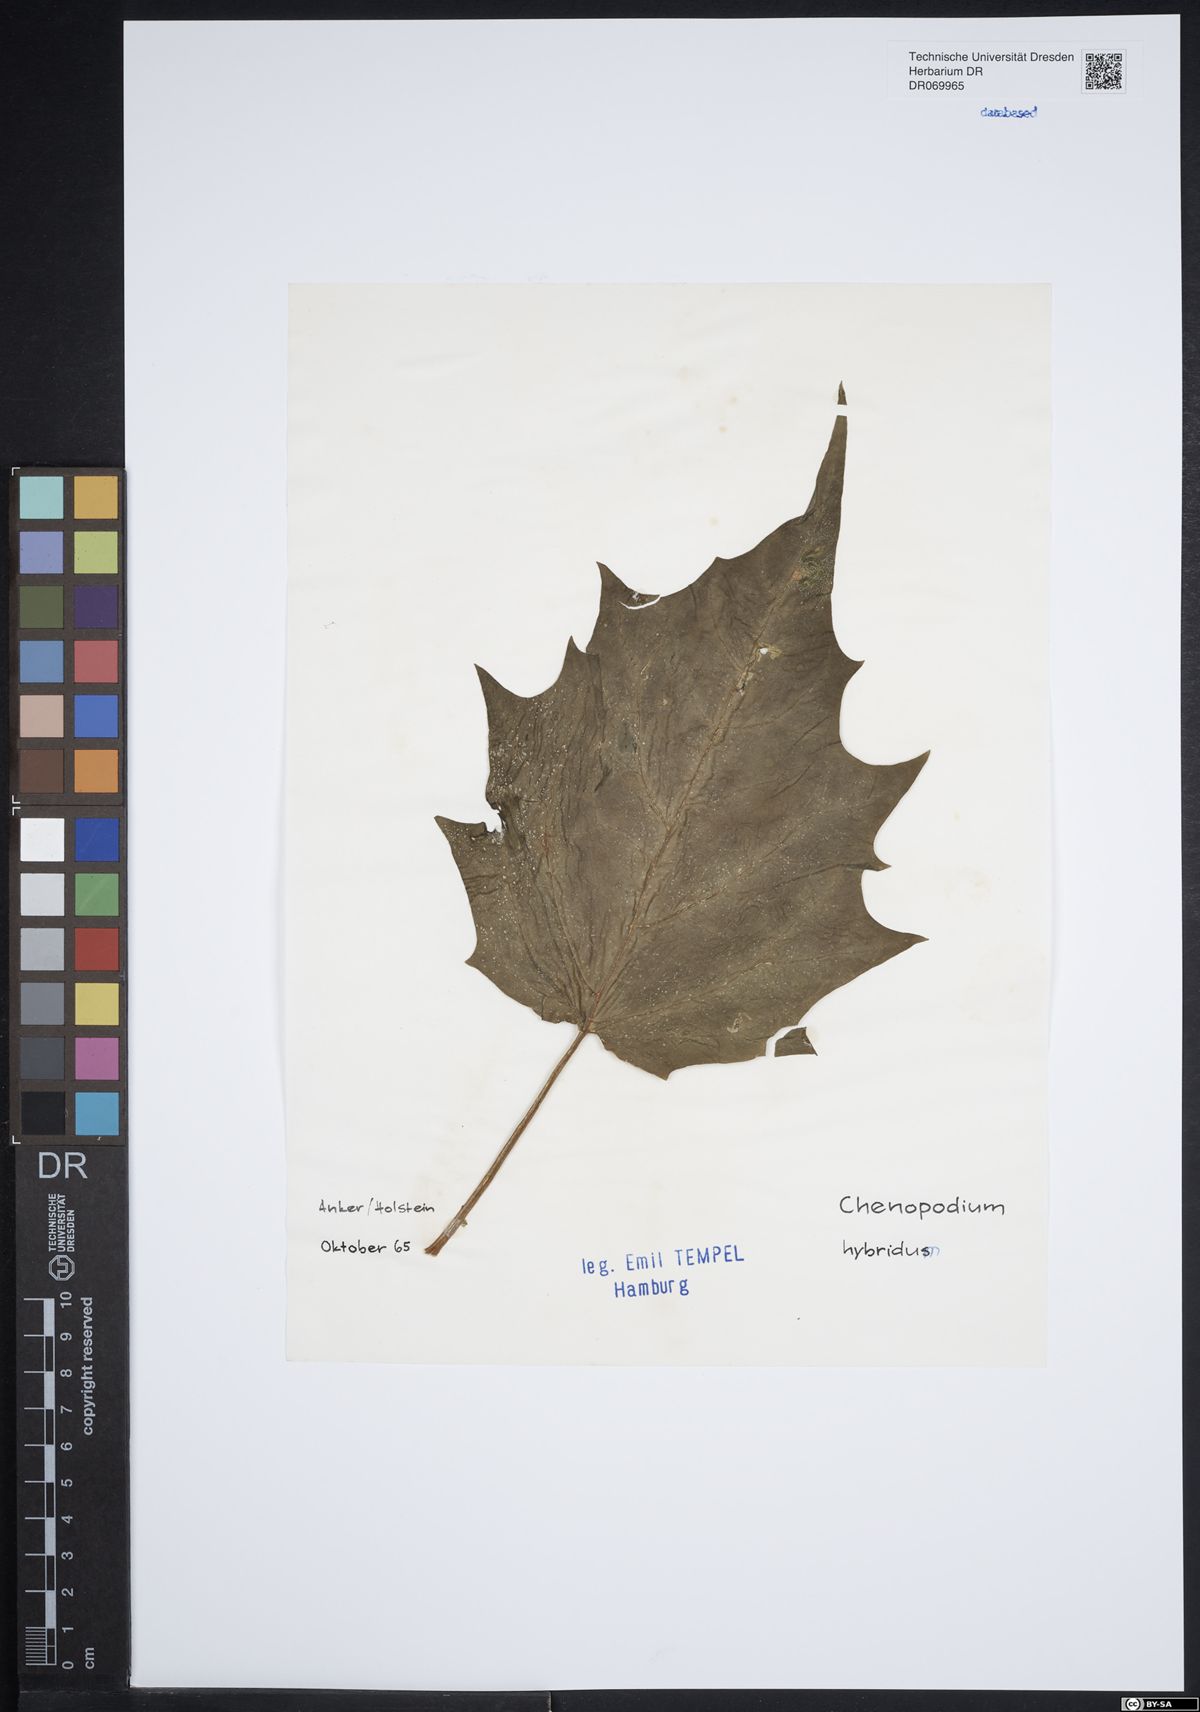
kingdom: Plantae
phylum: Tracheophyta
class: Magnoliopsida
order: Caryophyllales
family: Amaranthaceae
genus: Chenopodiastrum
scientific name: Chenopodiastrum hybridum
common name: Mapleleaf goosefoot
